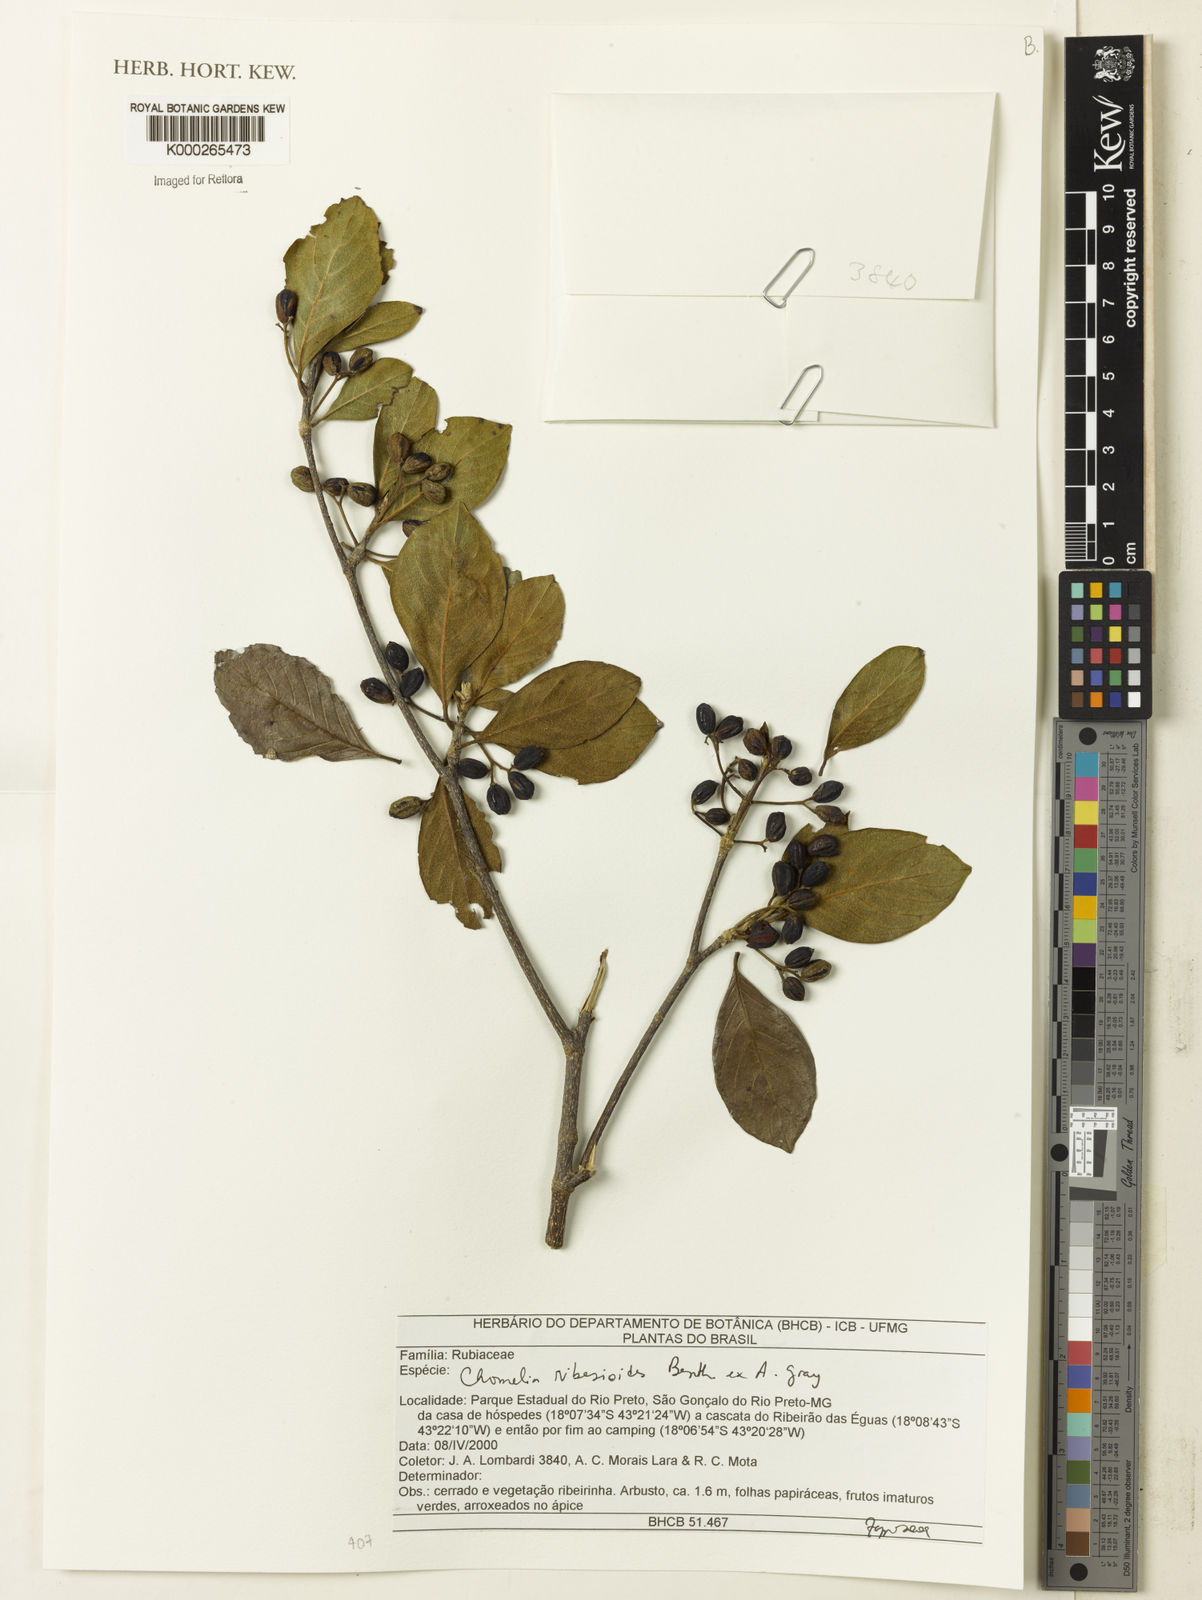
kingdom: Plantae
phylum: Tracheophyta
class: Magnoliopsida
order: Gentianales
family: Rubiaceae
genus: Chomelia
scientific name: Chomelia ribesioides
